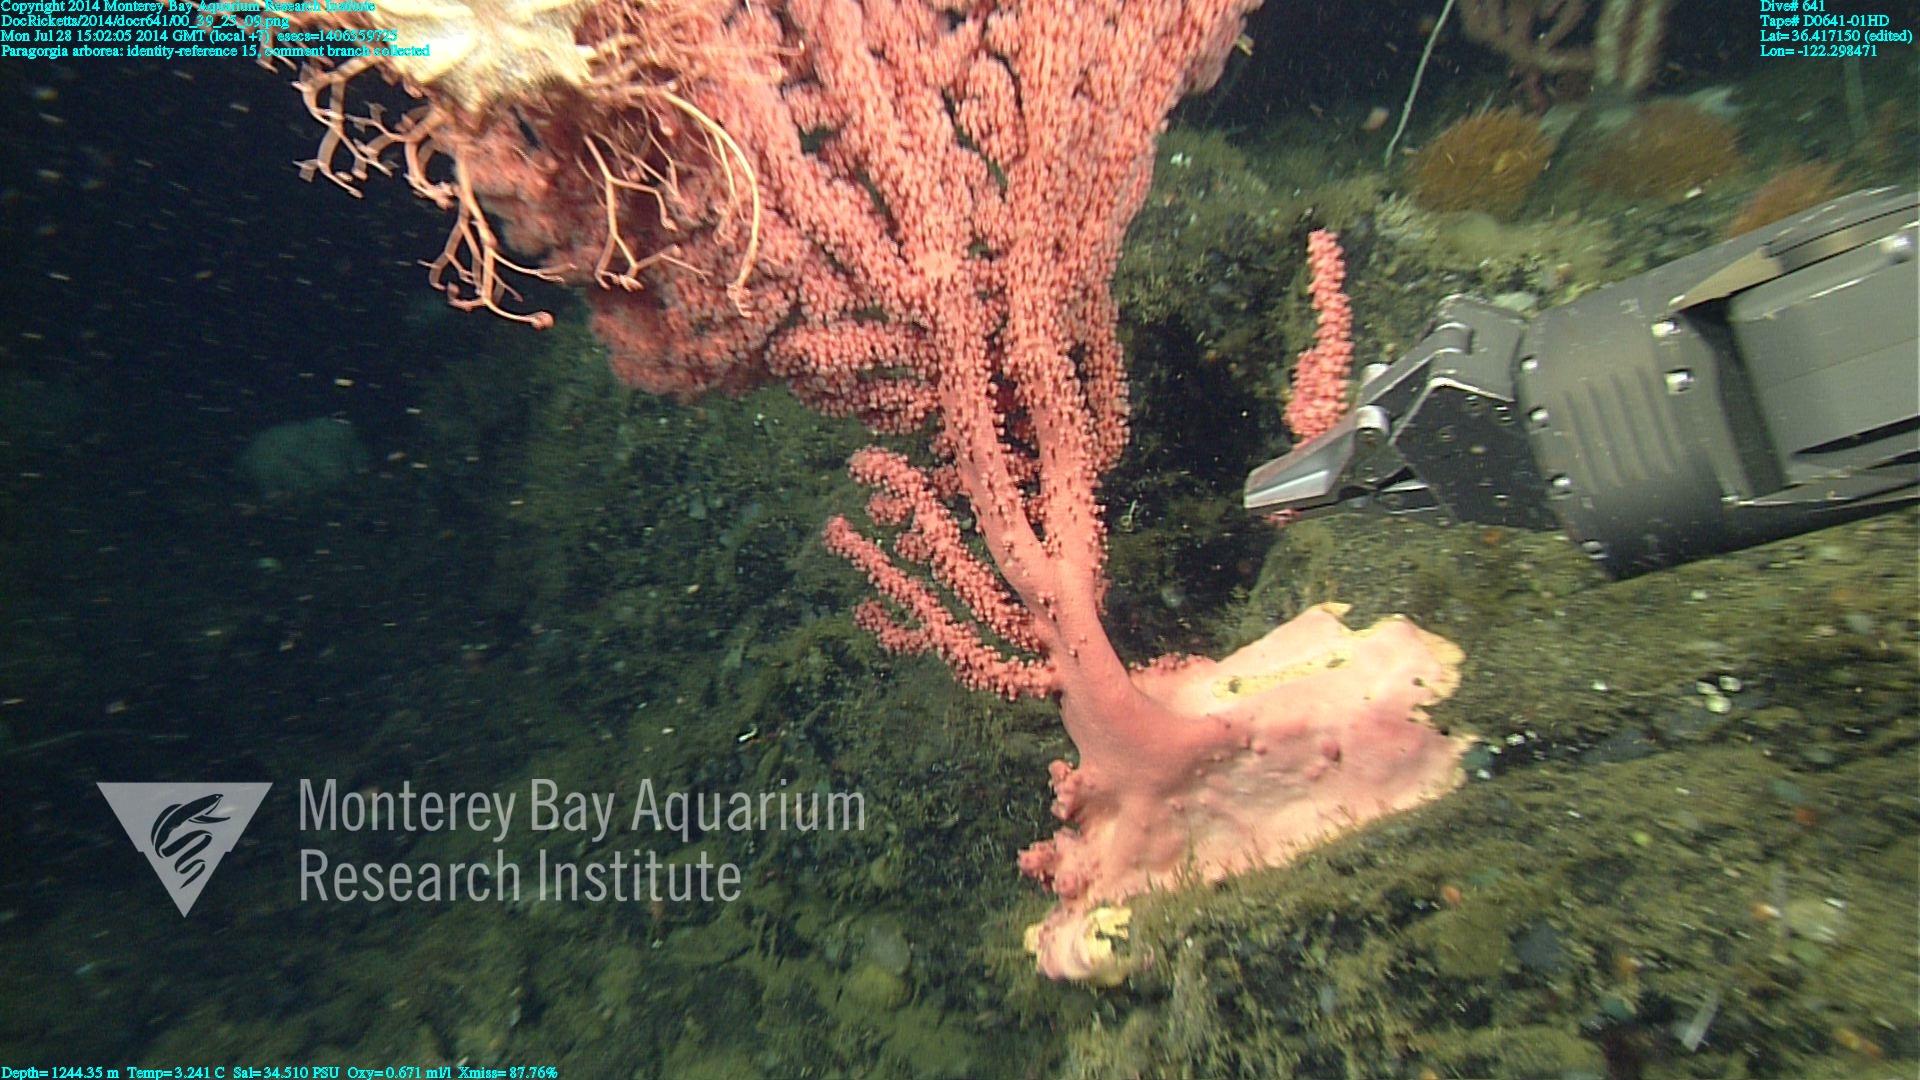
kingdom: Animalia
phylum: Cnidaria
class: Anthozoa
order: Scleralcyonacea
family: Coralliidae
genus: Paragorgia
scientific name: Paragorgia arborea
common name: Bubble gum coral
